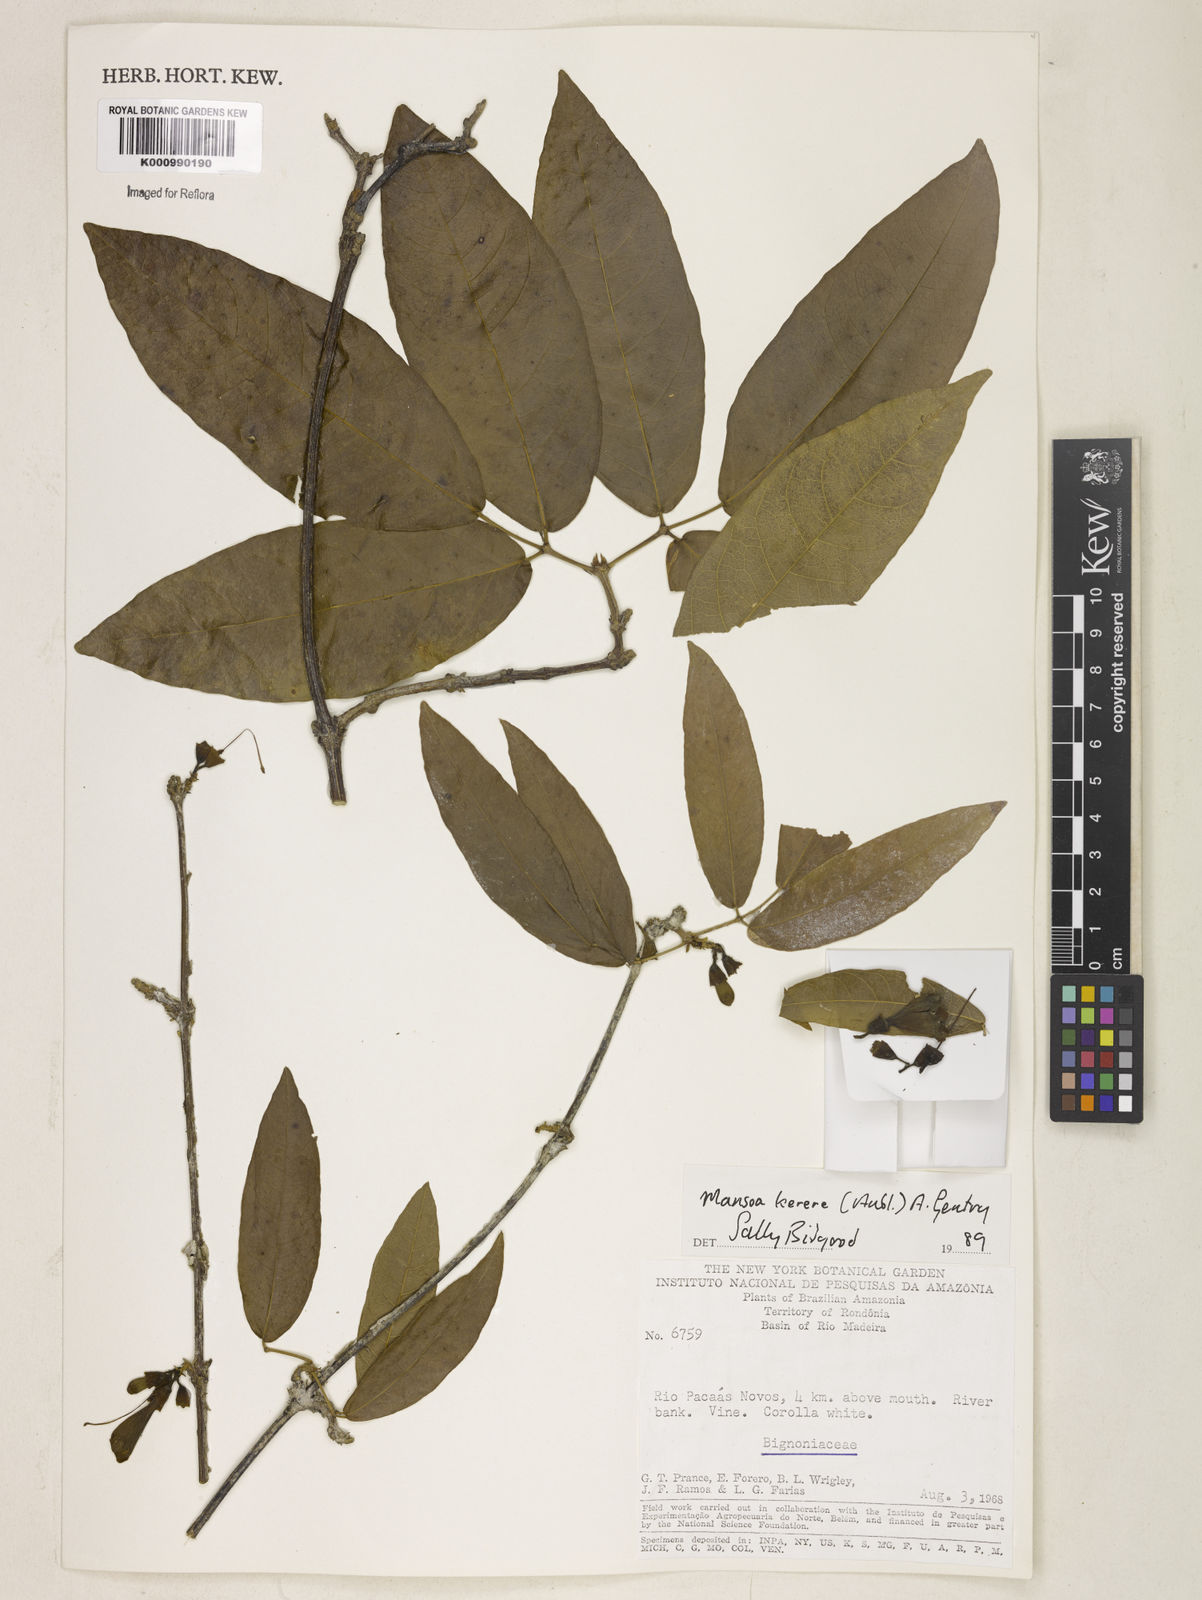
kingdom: Plantae
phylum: Tracheophyta
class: Magnoliopsida
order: Lamiales
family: Bignoniaceae
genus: Pachyptera
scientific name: Pachyptera kerere
